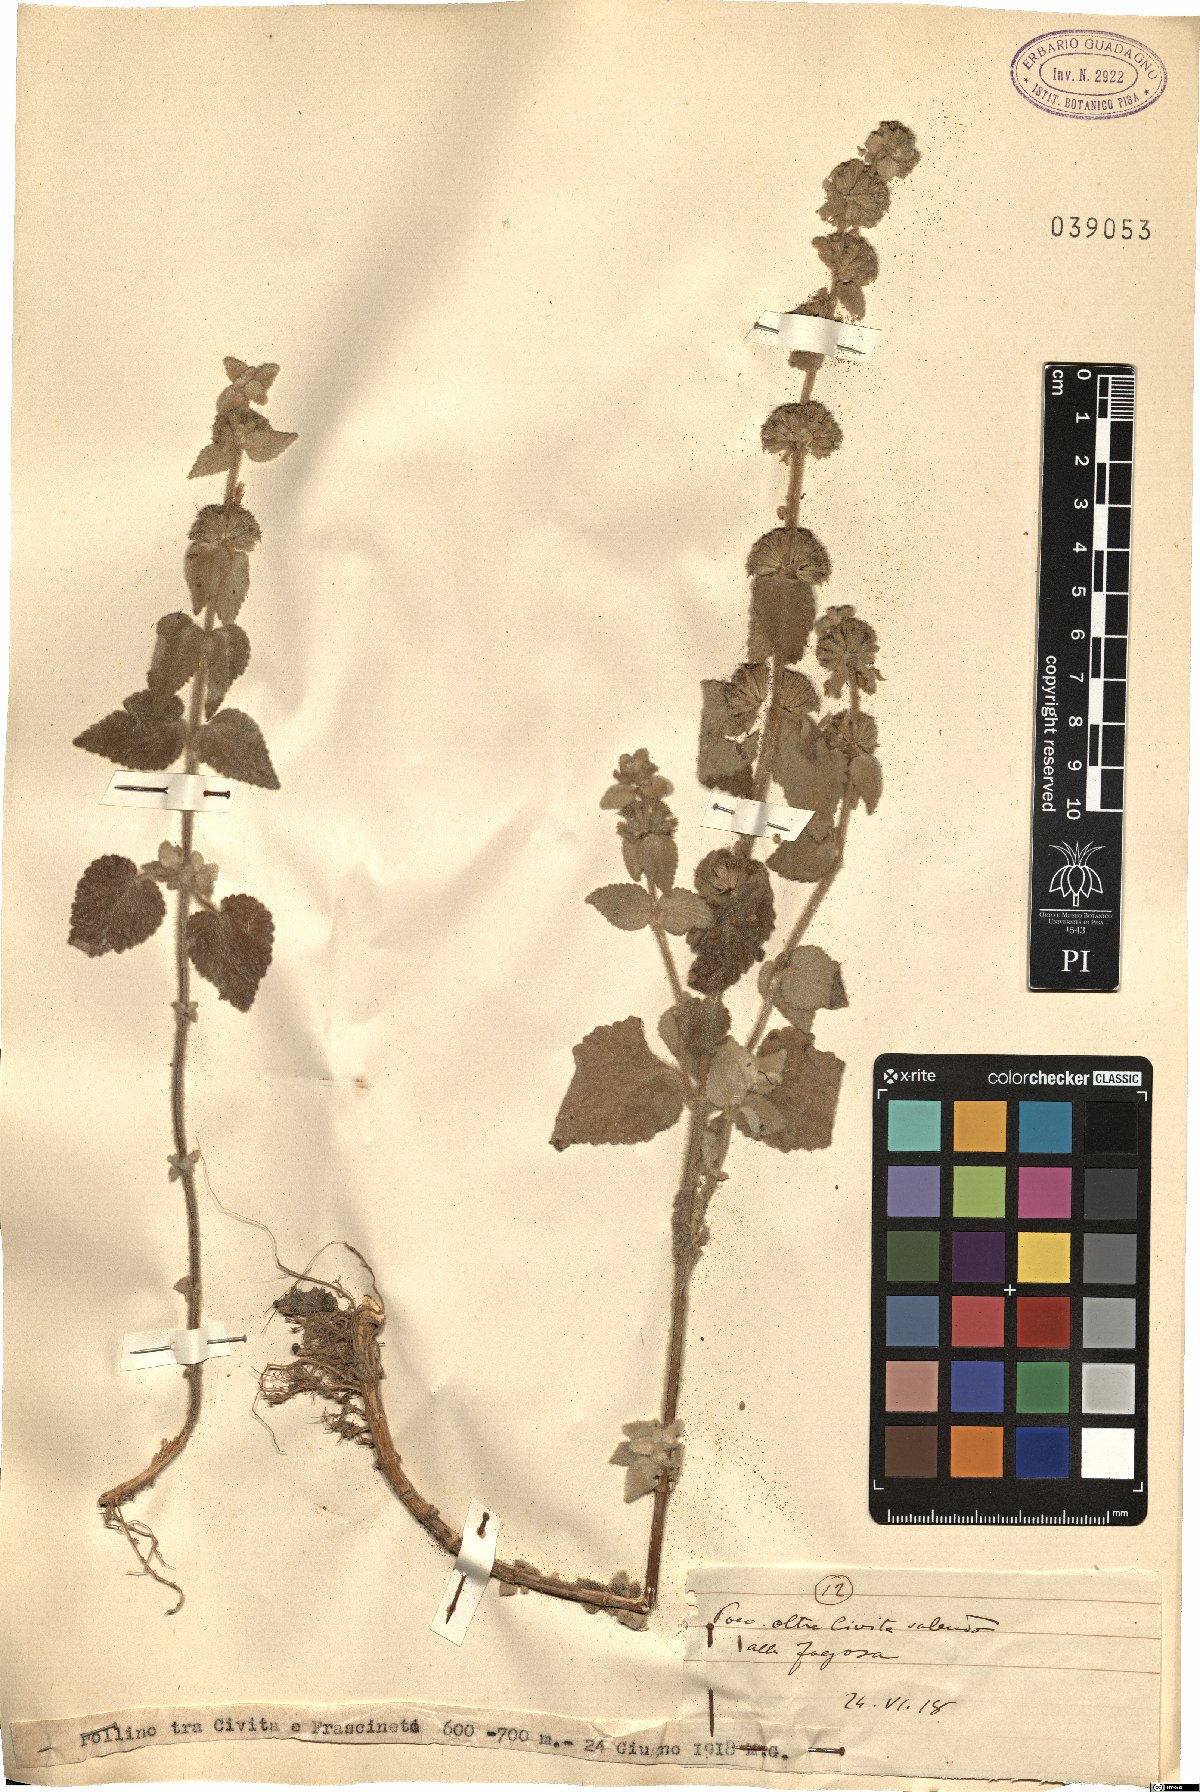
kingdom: Plantae
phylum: Tracheophyta
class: Magnoliopsida
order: Lamiales
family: Lamiaceae
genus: Marrubium
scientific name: Marrubium
